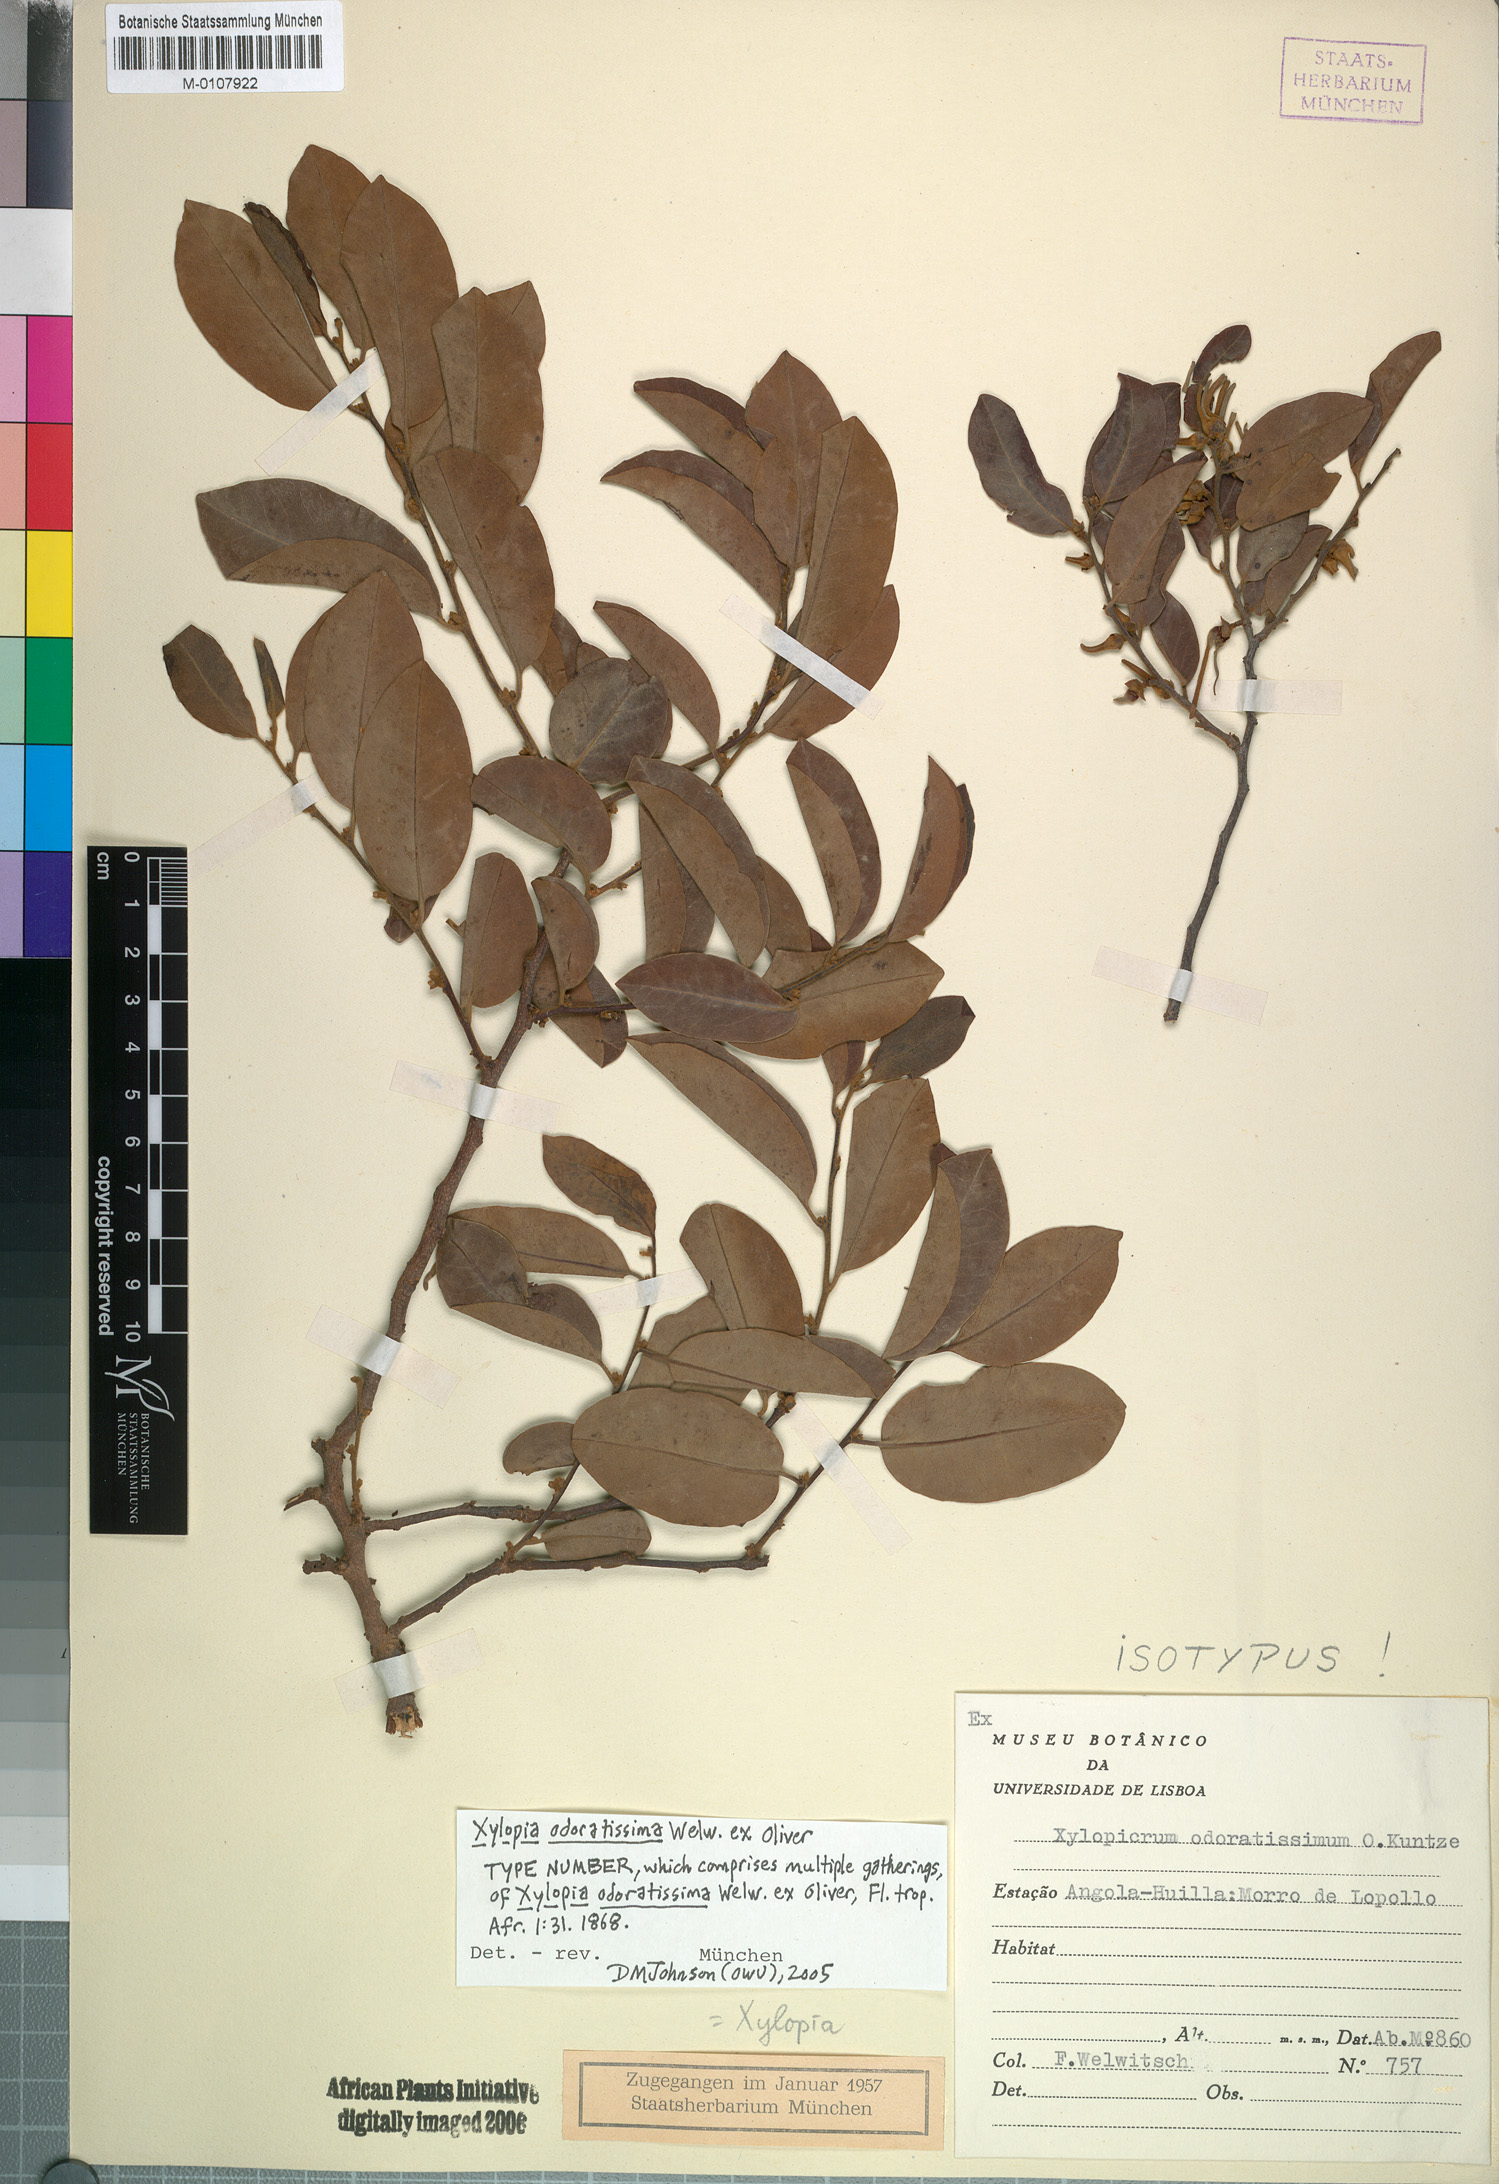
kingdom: Plantae
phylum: Tracheophyta
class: Magnoliopsida
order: Magnoliales
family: Annonaceae
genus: Xylopia
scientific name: Xylopia odoratissima
